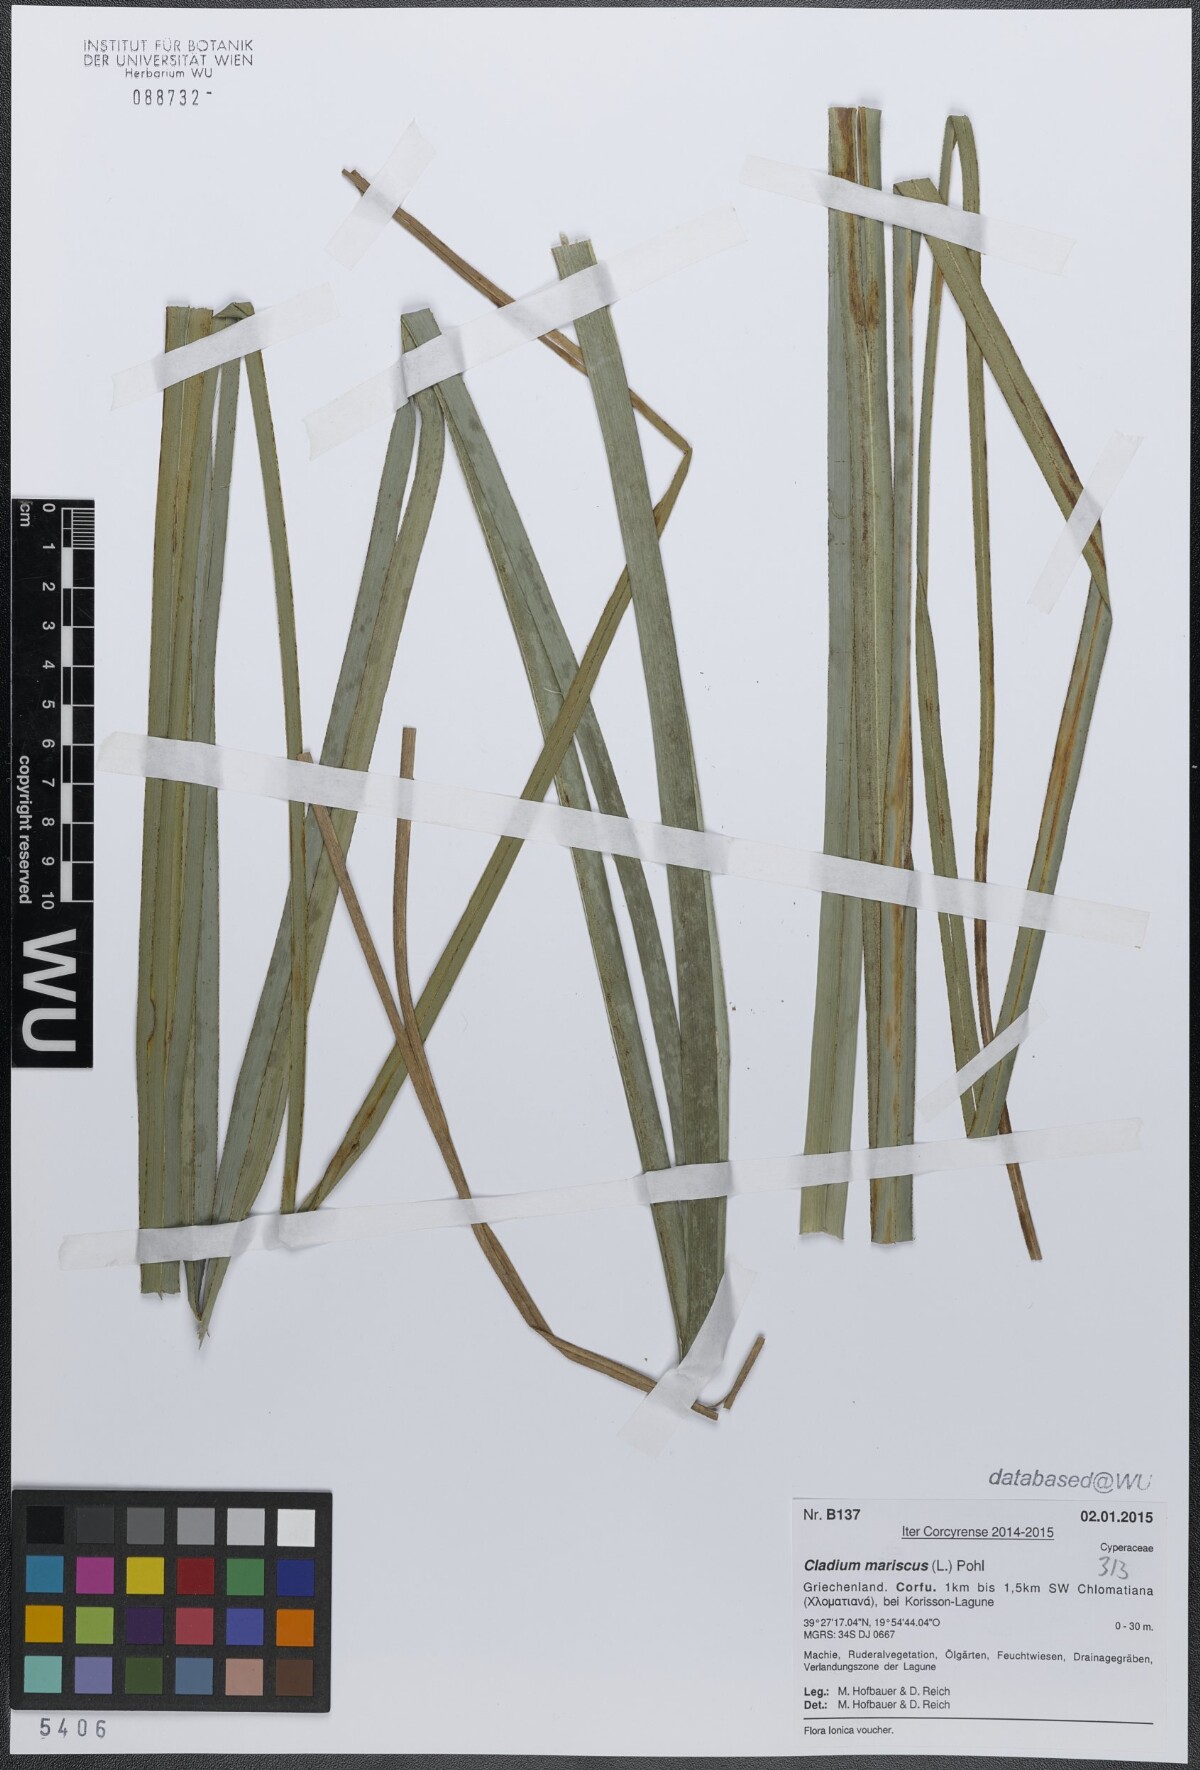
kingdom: Plantae
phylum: Tracheophyta
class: Liliopsida
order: Poales
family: Cyperaceae
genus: Cladium
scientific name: Cladium mariscus
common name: Great fen-sedge
